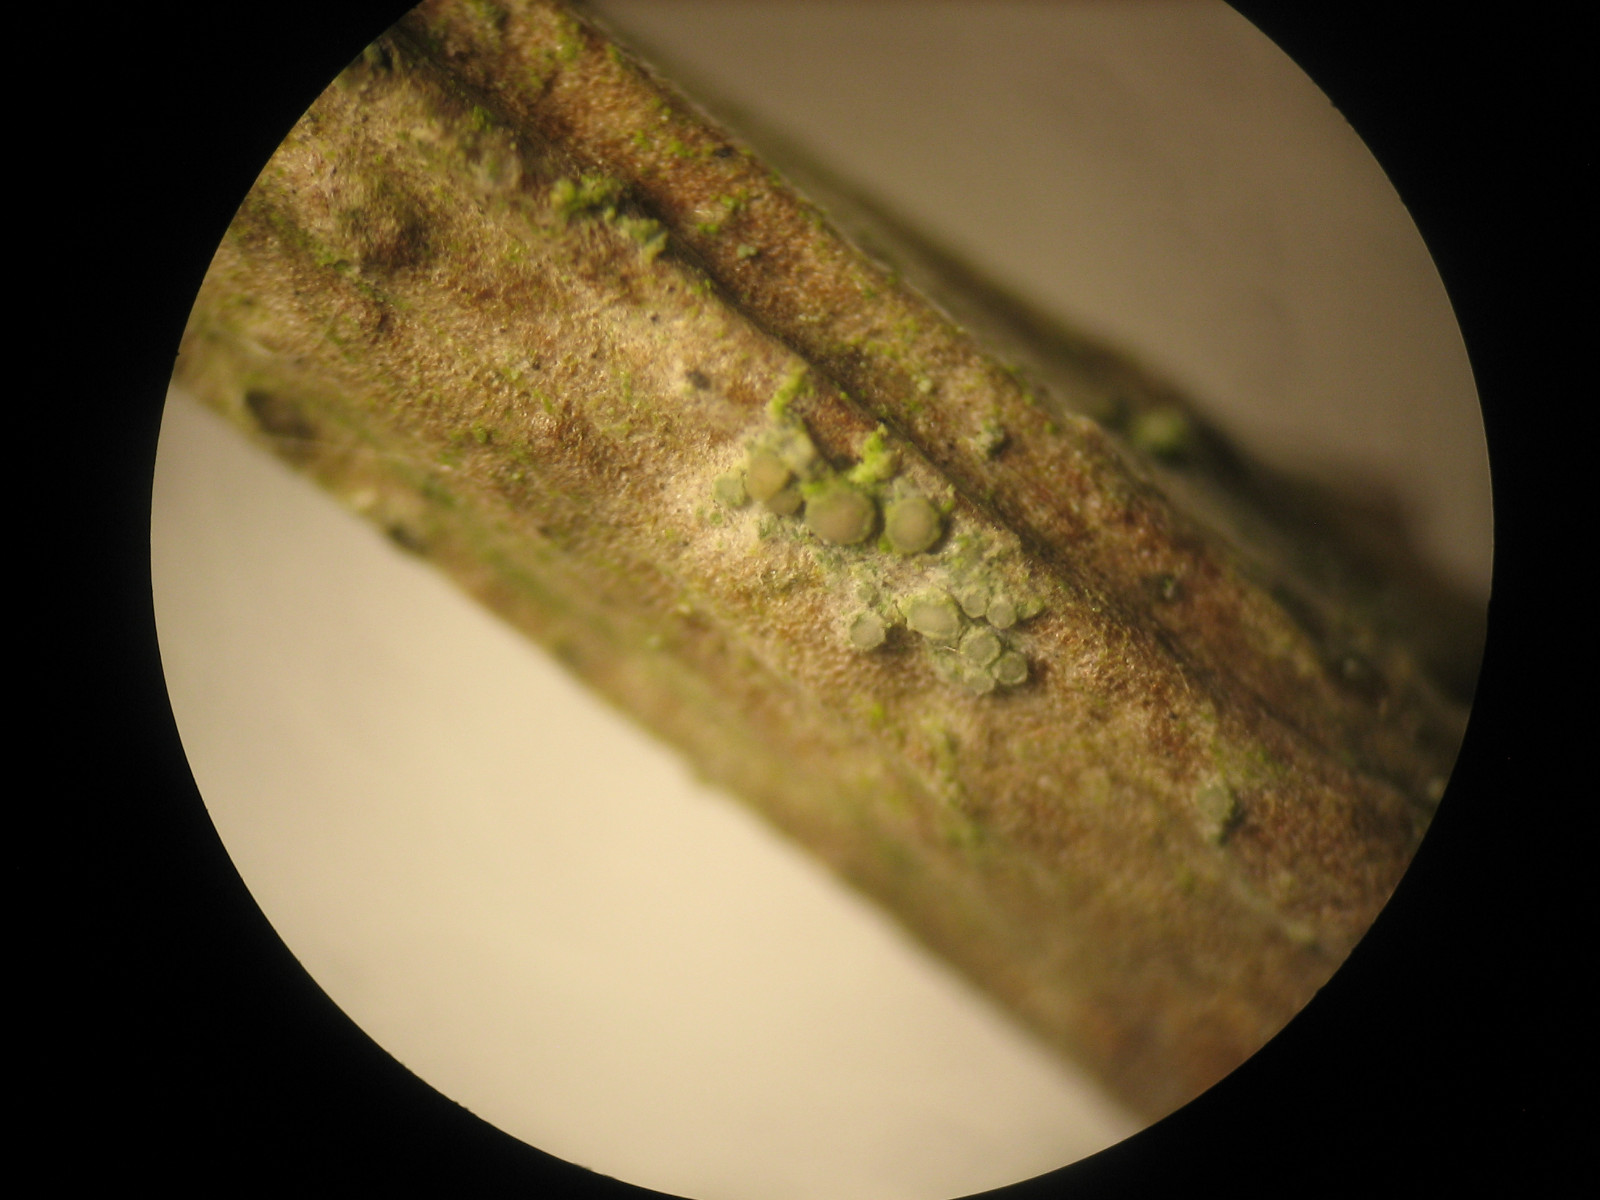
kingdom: Fungi
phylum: Ascomycota
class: Lecanoromycetes
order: Lecanorales
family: Ramalinaceae
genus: Lecania
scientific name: Lecania cyrtella
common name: hylde-lecania
